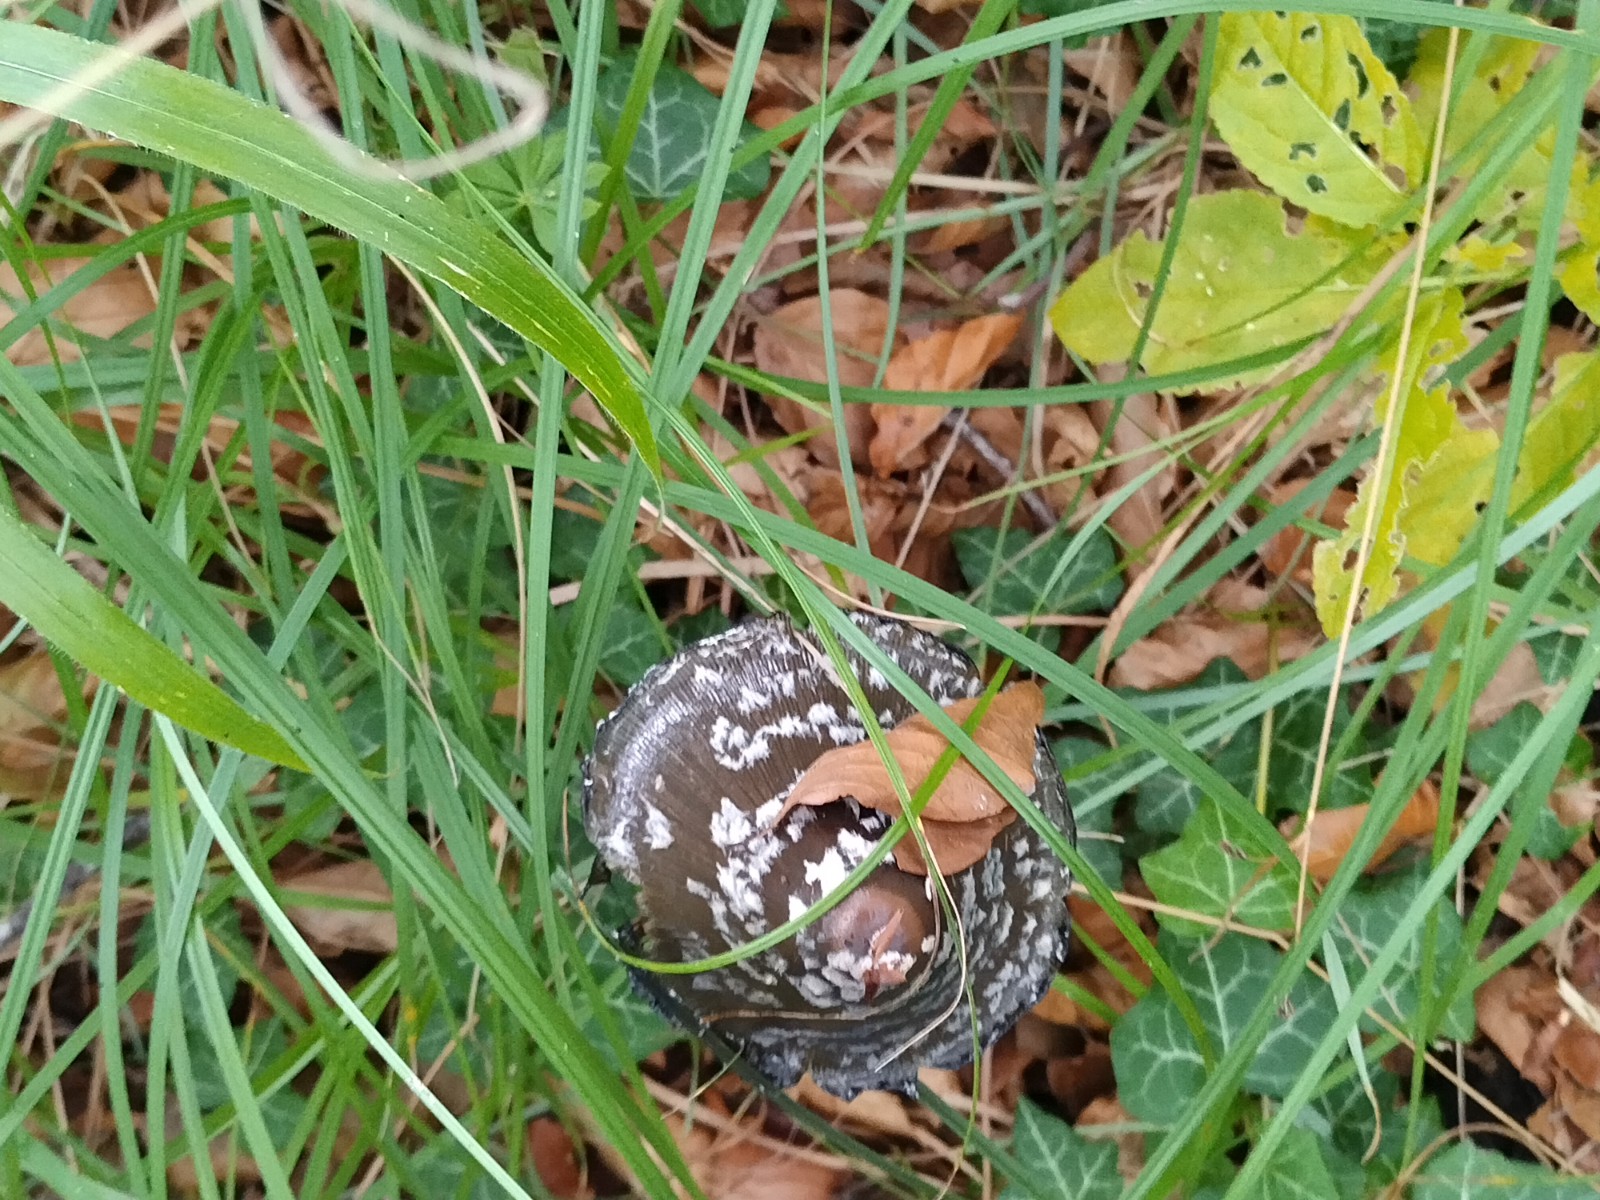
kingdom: Fungi
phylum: Basidiomycota
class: Agaricomycetes
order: Agaricales
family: Psathyrellaceae
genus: Coprinopsis
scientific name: Coprinopsis picacea
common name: skade-blækhat
